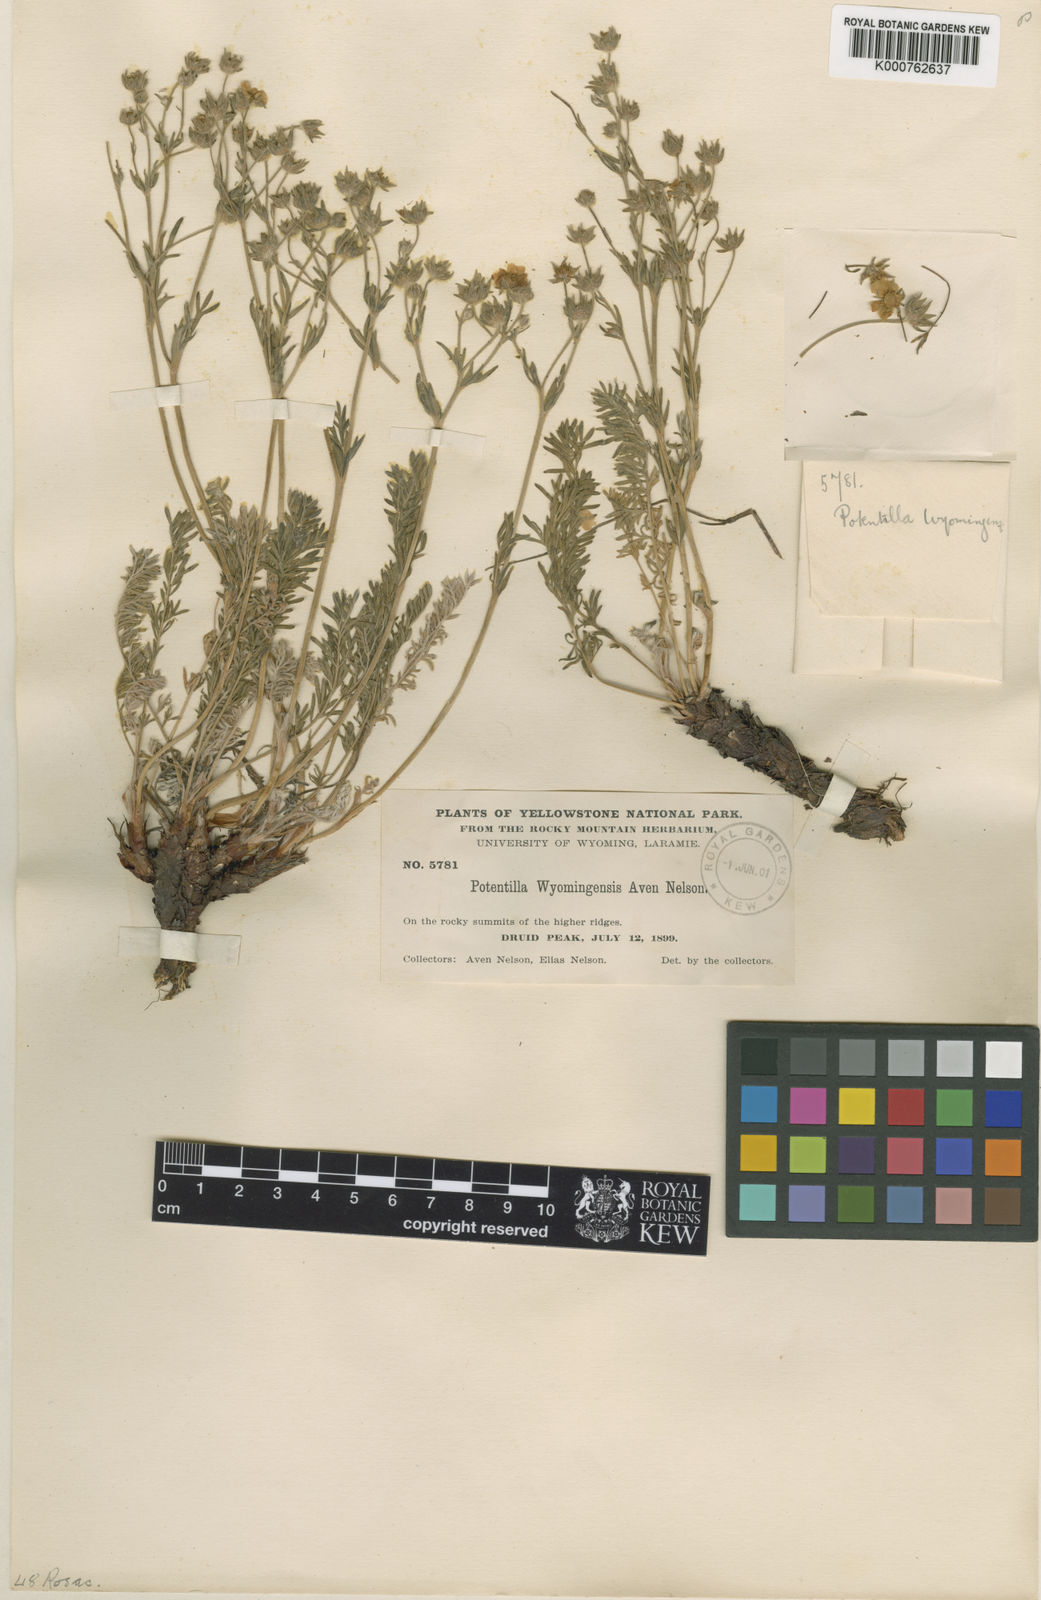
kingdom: Plantae
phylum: Tracheophyta
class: Magnoliopsida
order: Rosales
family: Rosaceae
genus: Potentilla
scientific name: Potentilla ovina
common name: Sheep cinquefoil
